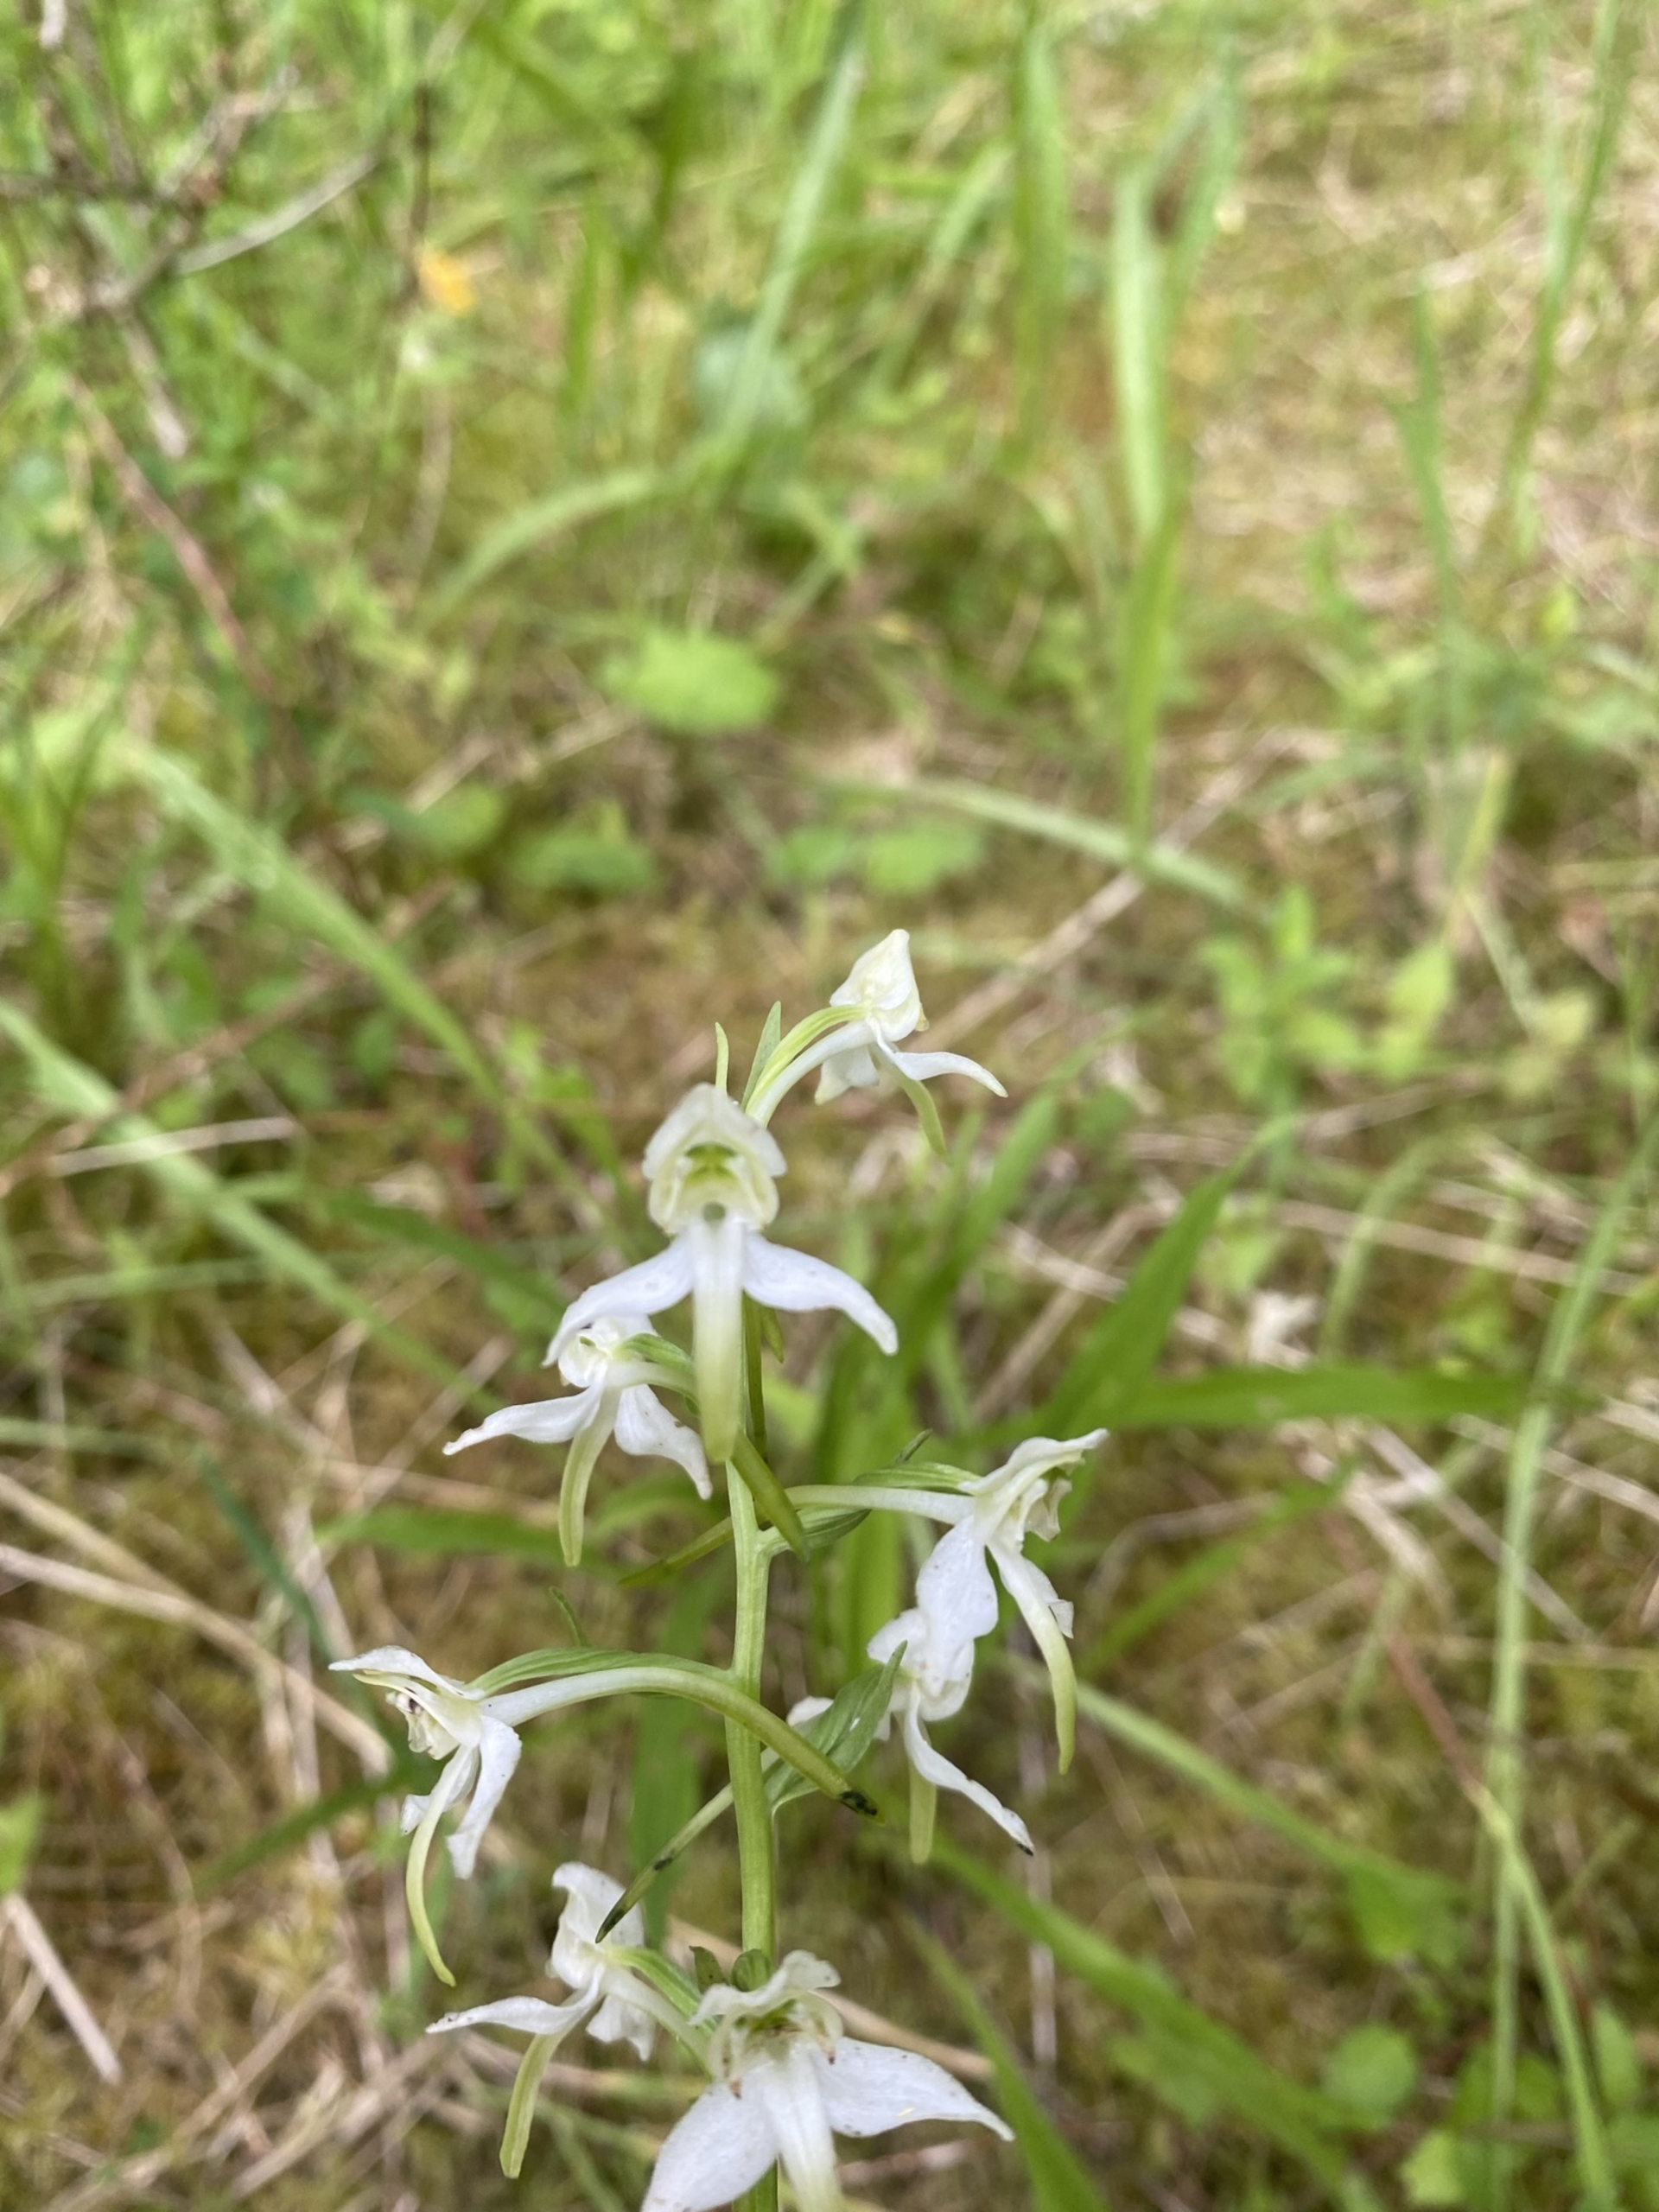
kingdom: Plantae
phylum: Tracheophyta
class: Liliopsida
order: Asparagales
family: Orchidaceae
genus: Platanthera
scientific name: Platanthera chlorantha
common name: Skov-gøgelilje
